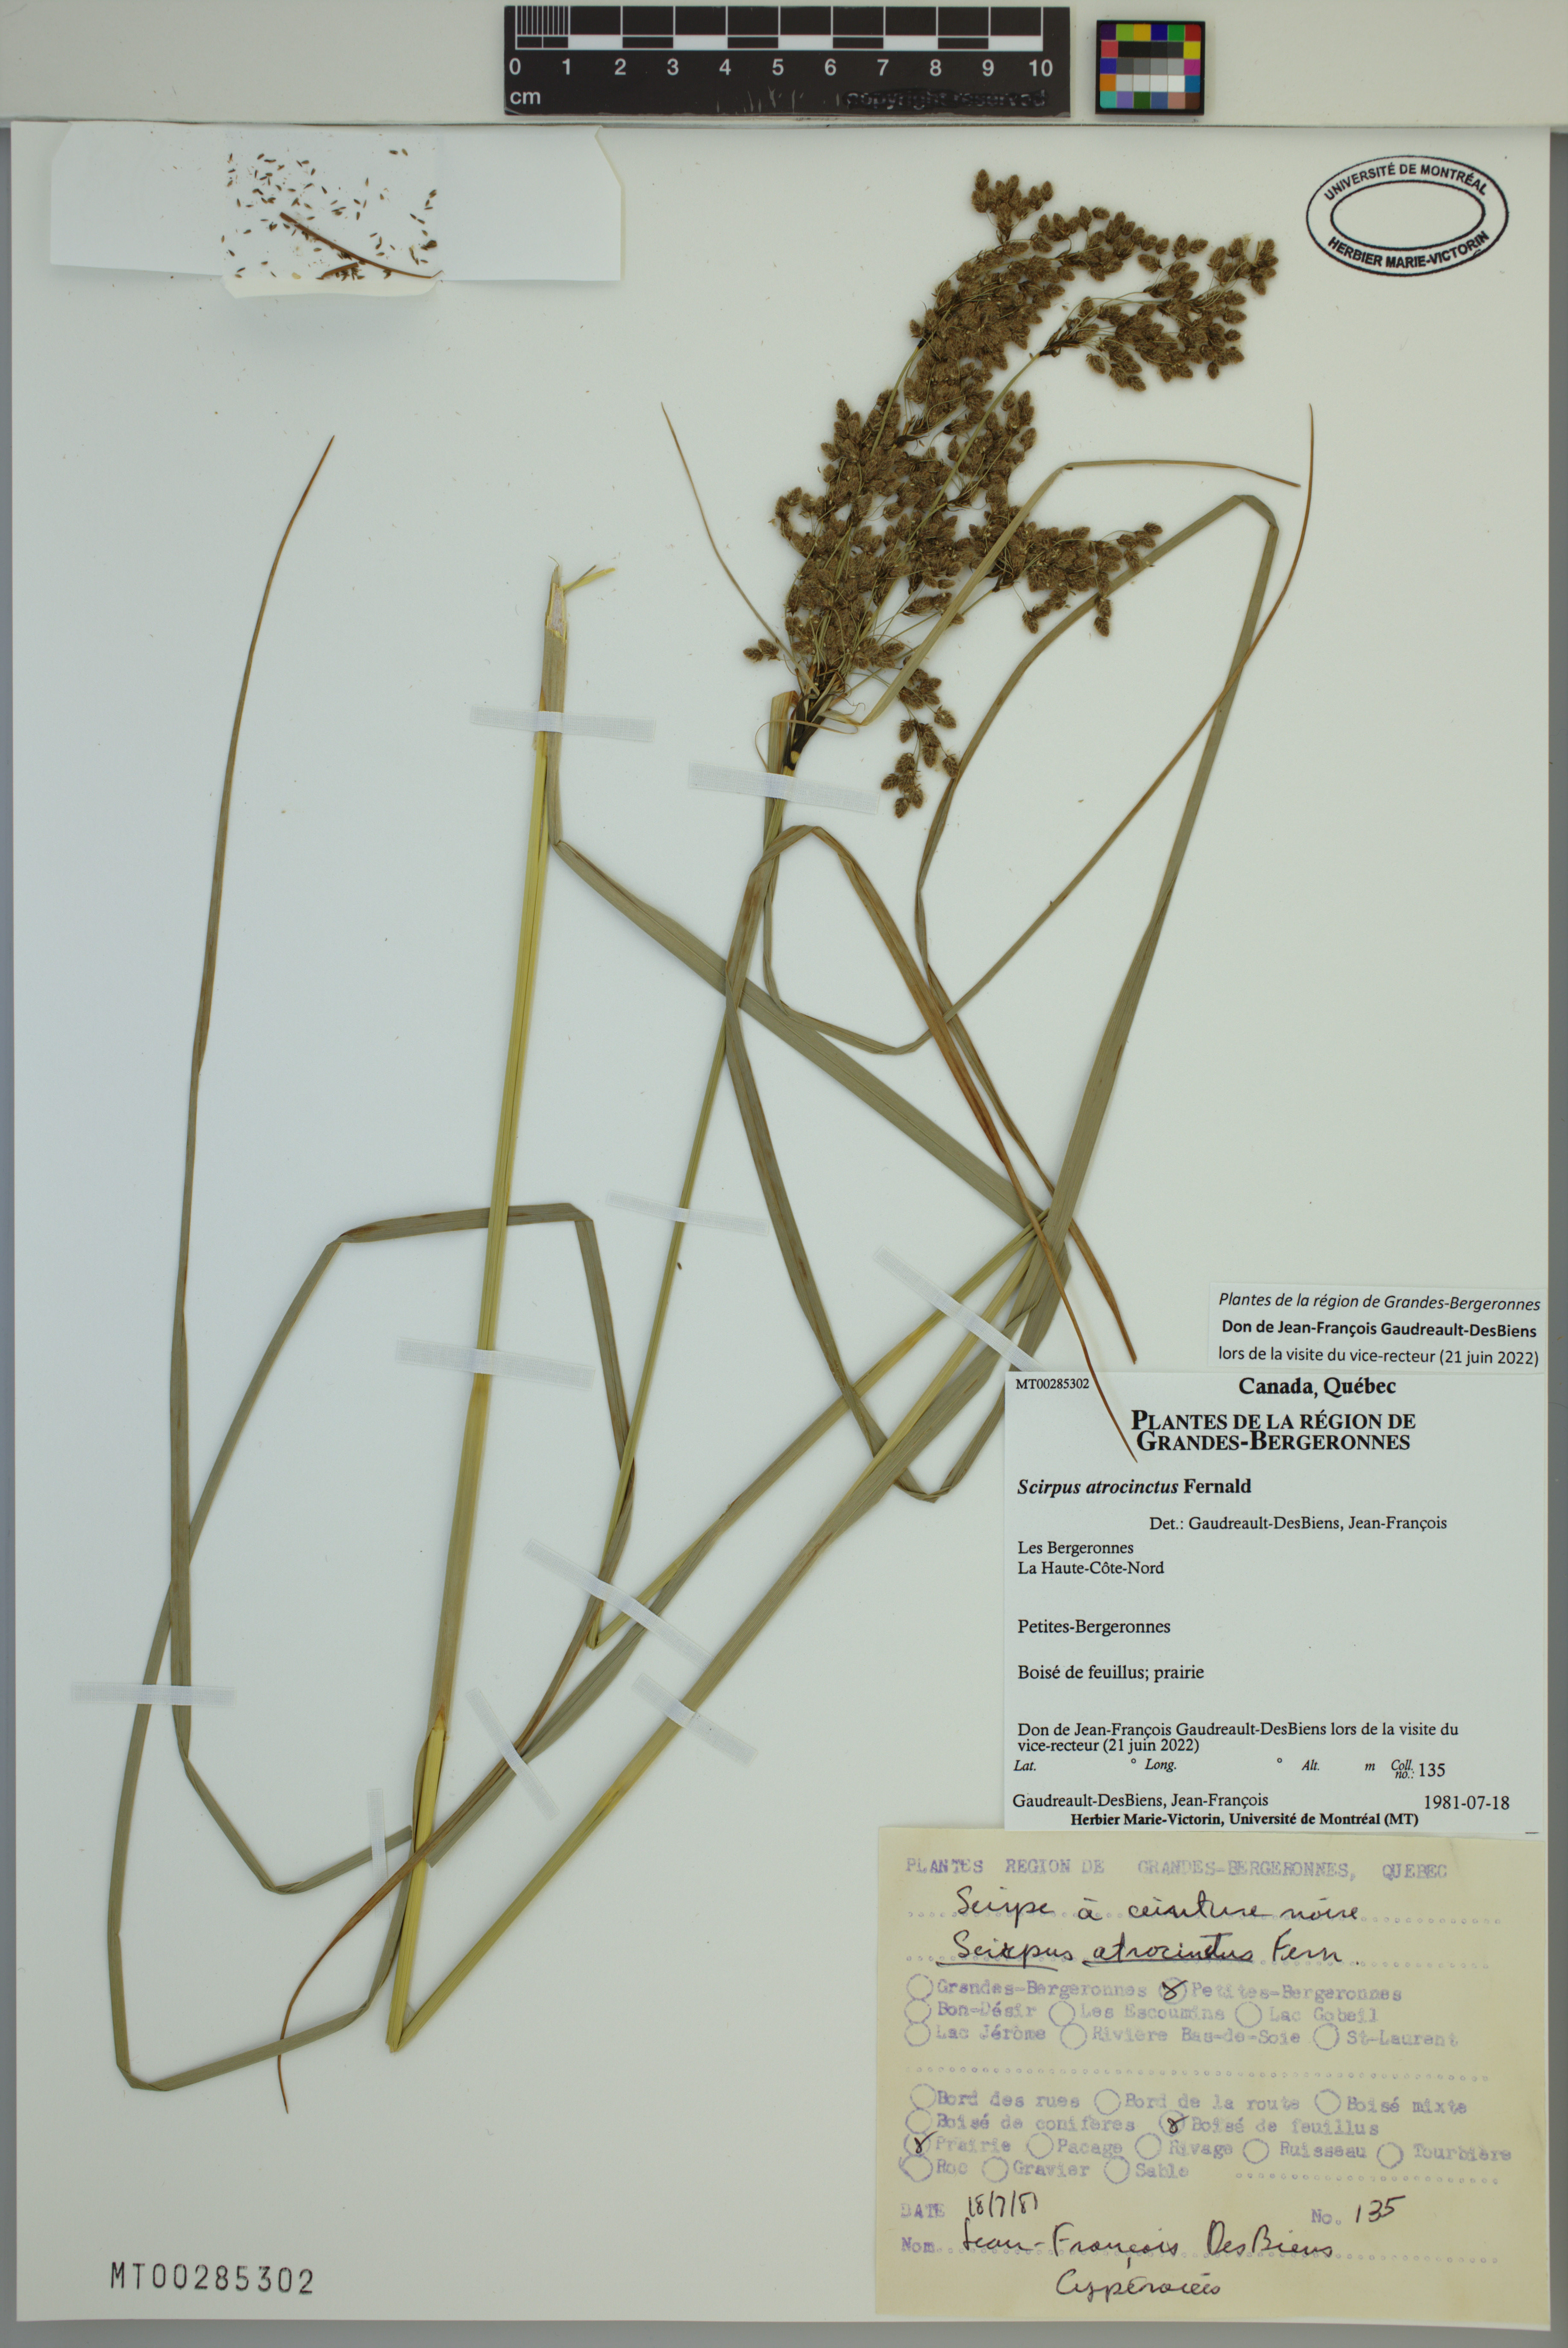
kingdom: Plantae
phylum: Tracheophyta
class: Liliopsida
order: Poales
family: Cyperaceae
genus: Scirpus
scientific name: Scirpus atrocinctus
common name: Black-girdled bulrush
